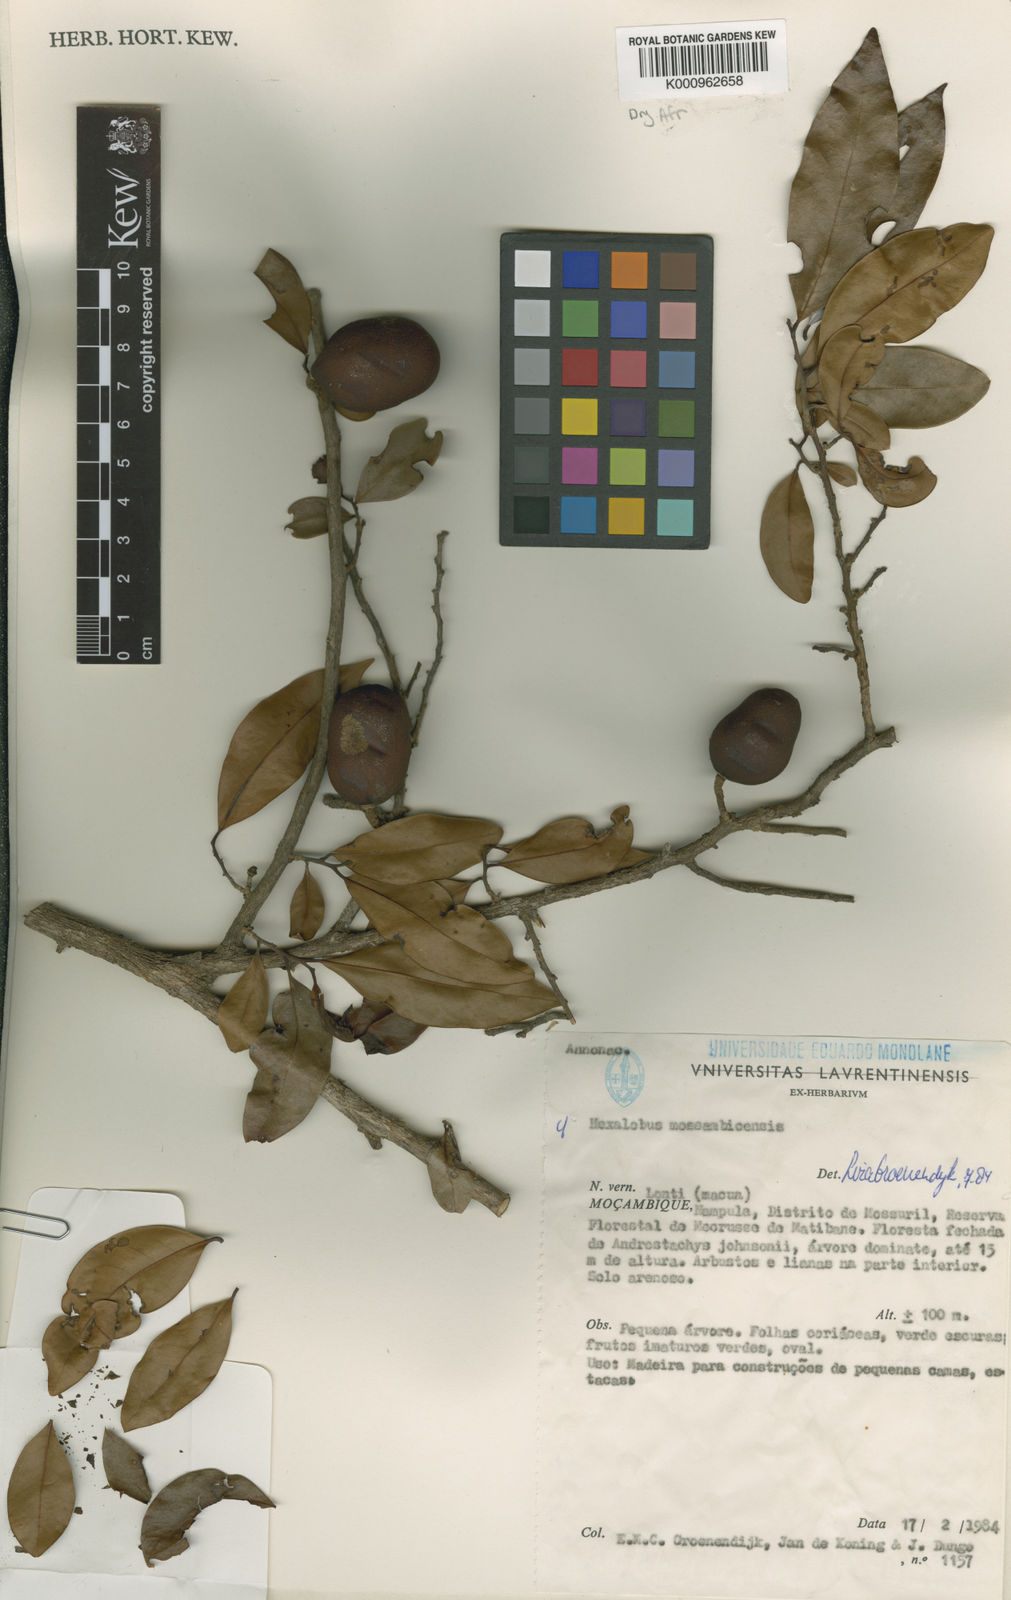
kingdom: Plantae
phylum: Tracheophyta
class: Magnoliopsida
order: Magnoliales
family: Annonaceae
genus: Hexalobus
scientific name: Hexalobus mossambicensis
